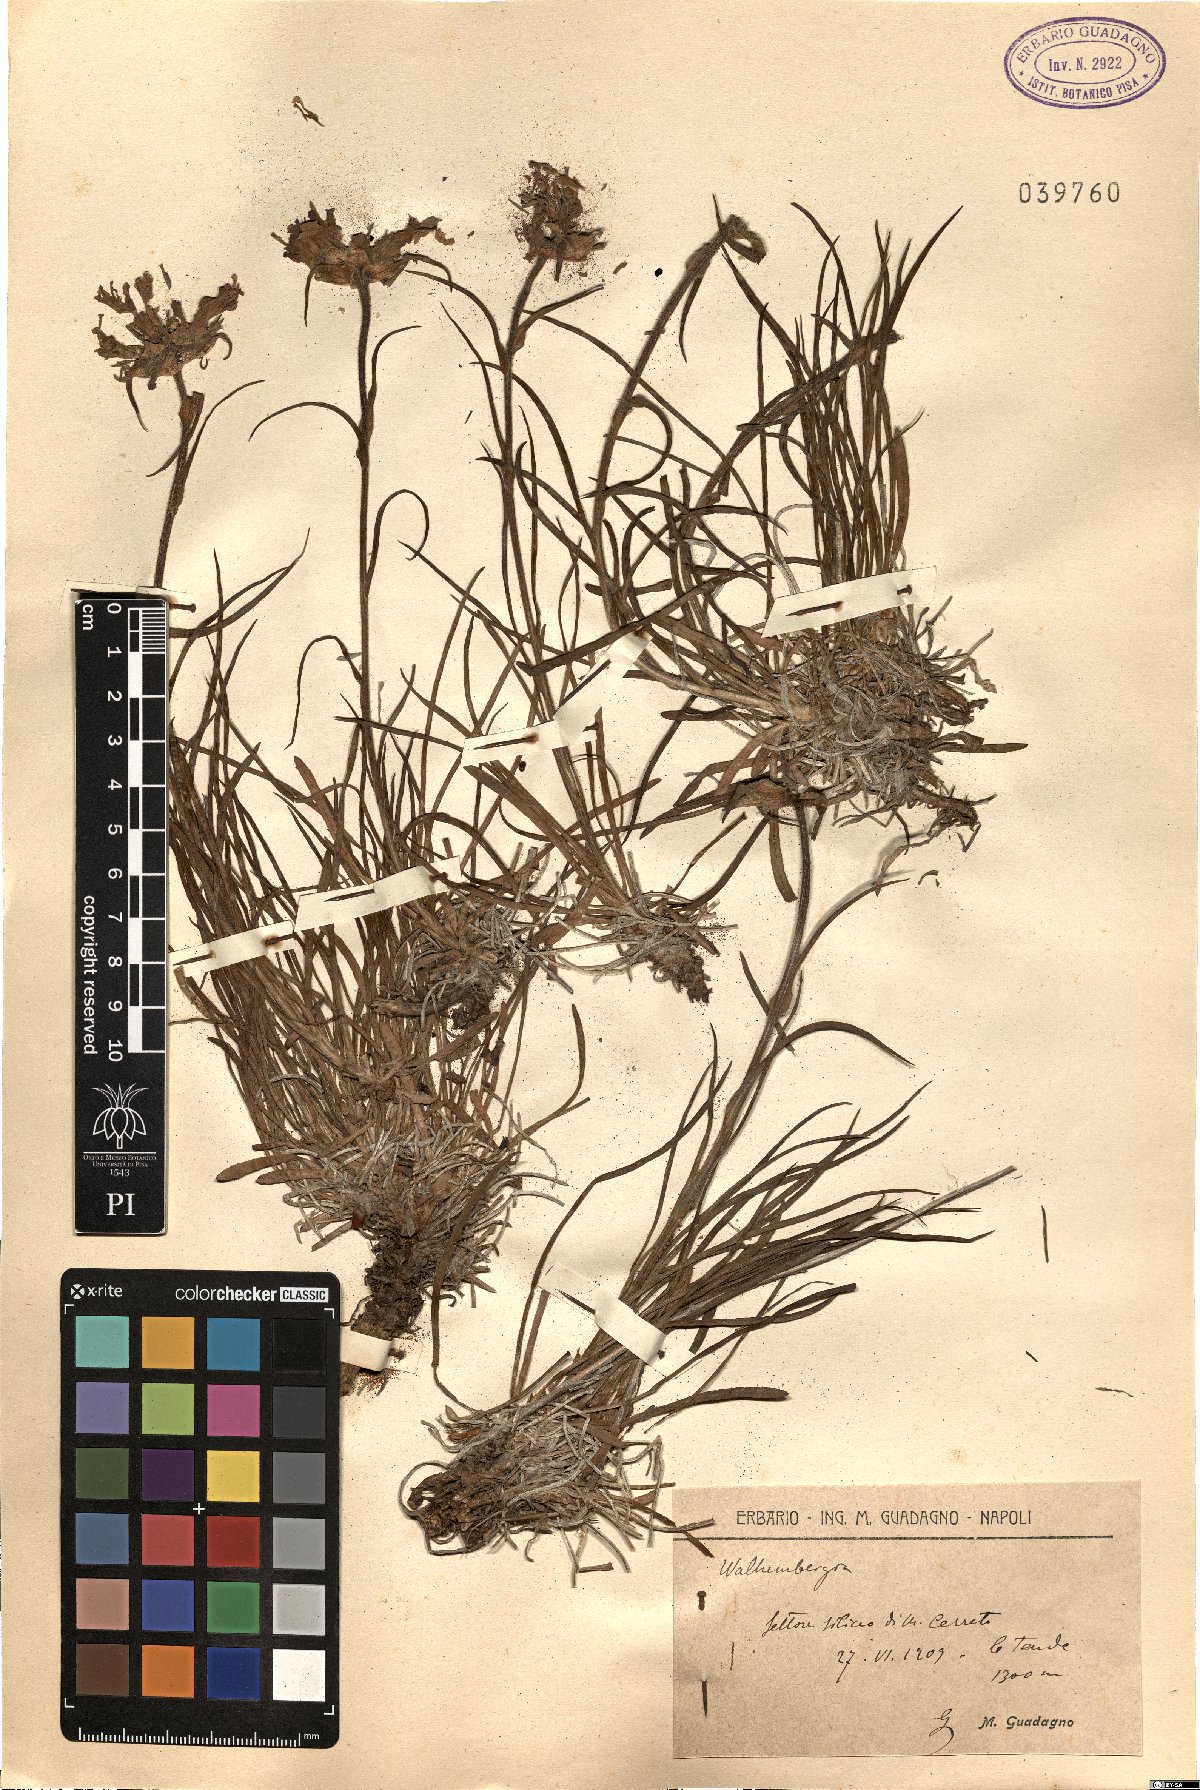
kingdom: Plantae
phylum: Tracheophyta
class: Magnoliopsida
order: Asterales
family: Campanulaceae
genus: Wahlenbergia
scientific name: Wahlenbergia
